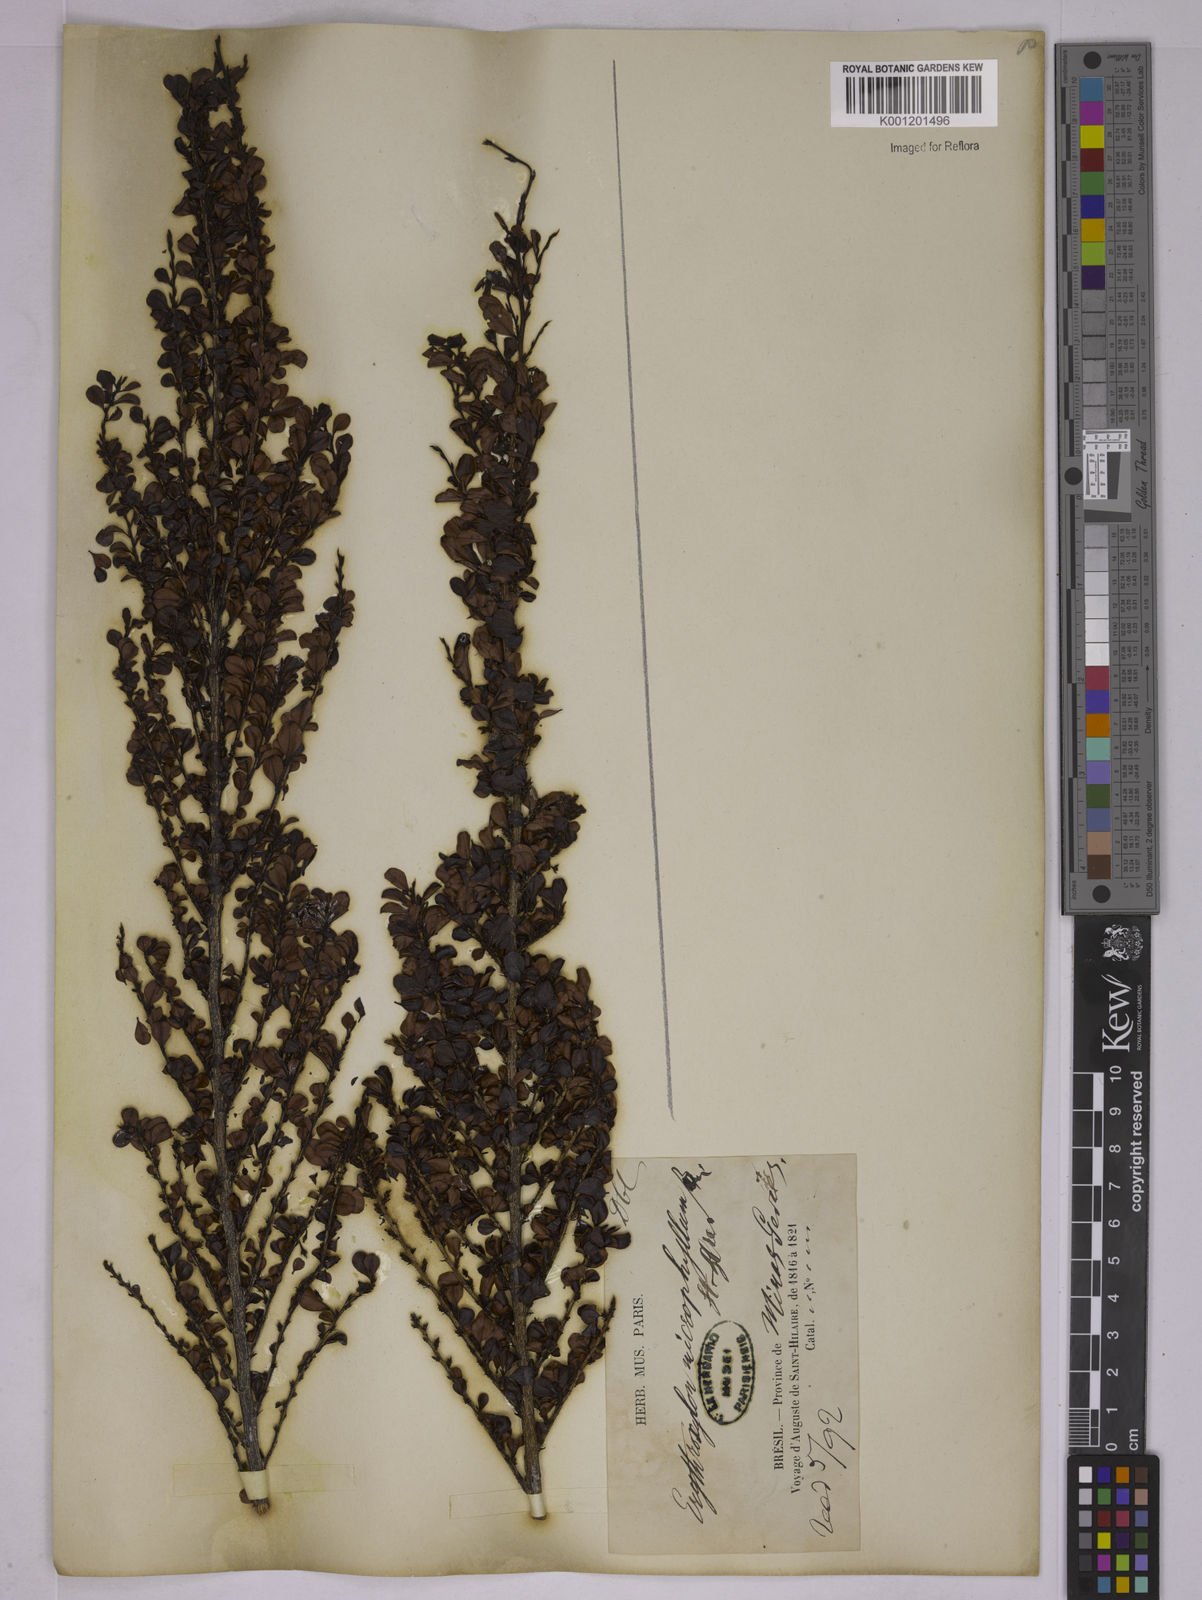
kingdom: Plantae
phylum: Tracheophyta
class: Magnoliopsida
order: Malpighiales
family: Erythroxylaceae
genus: Erythroxylum
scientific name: Erythroxylum
